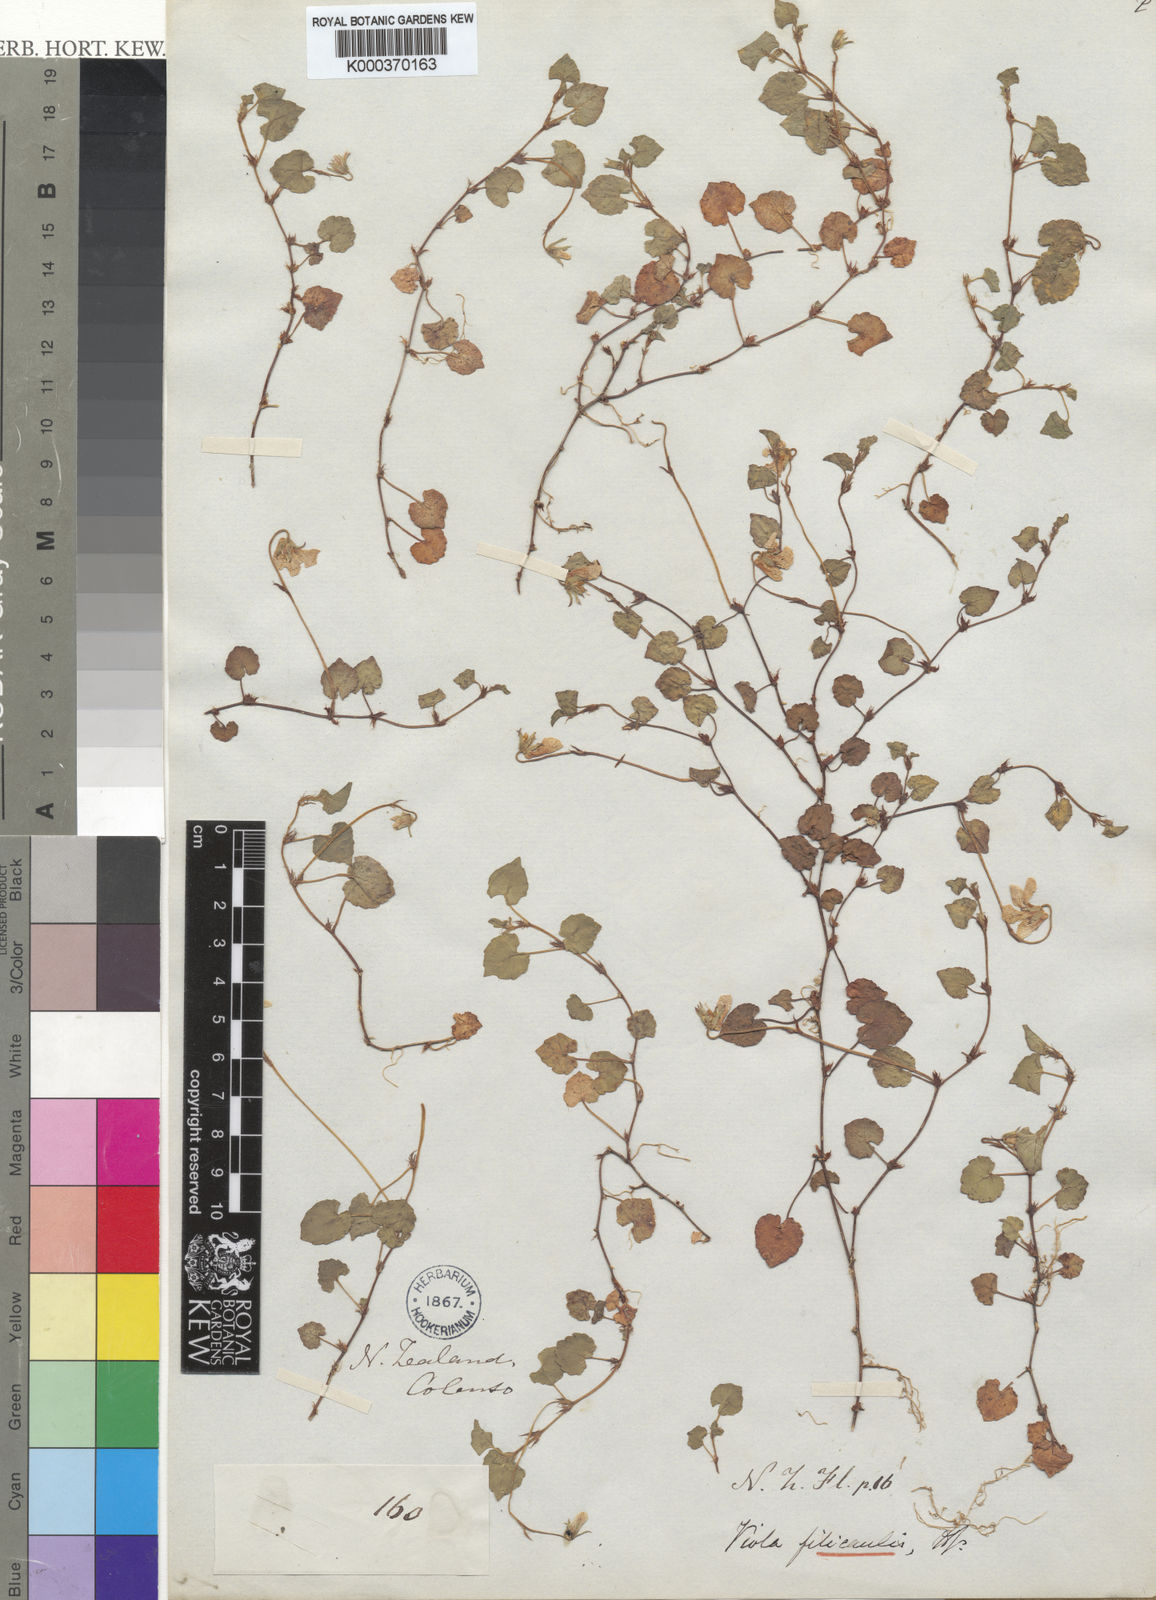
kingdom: Plantae
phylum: Tracheophyta
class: Magnoliopsida
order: Malpighiales
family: Violaceae
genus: Viola
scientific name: Viola filicaulis
